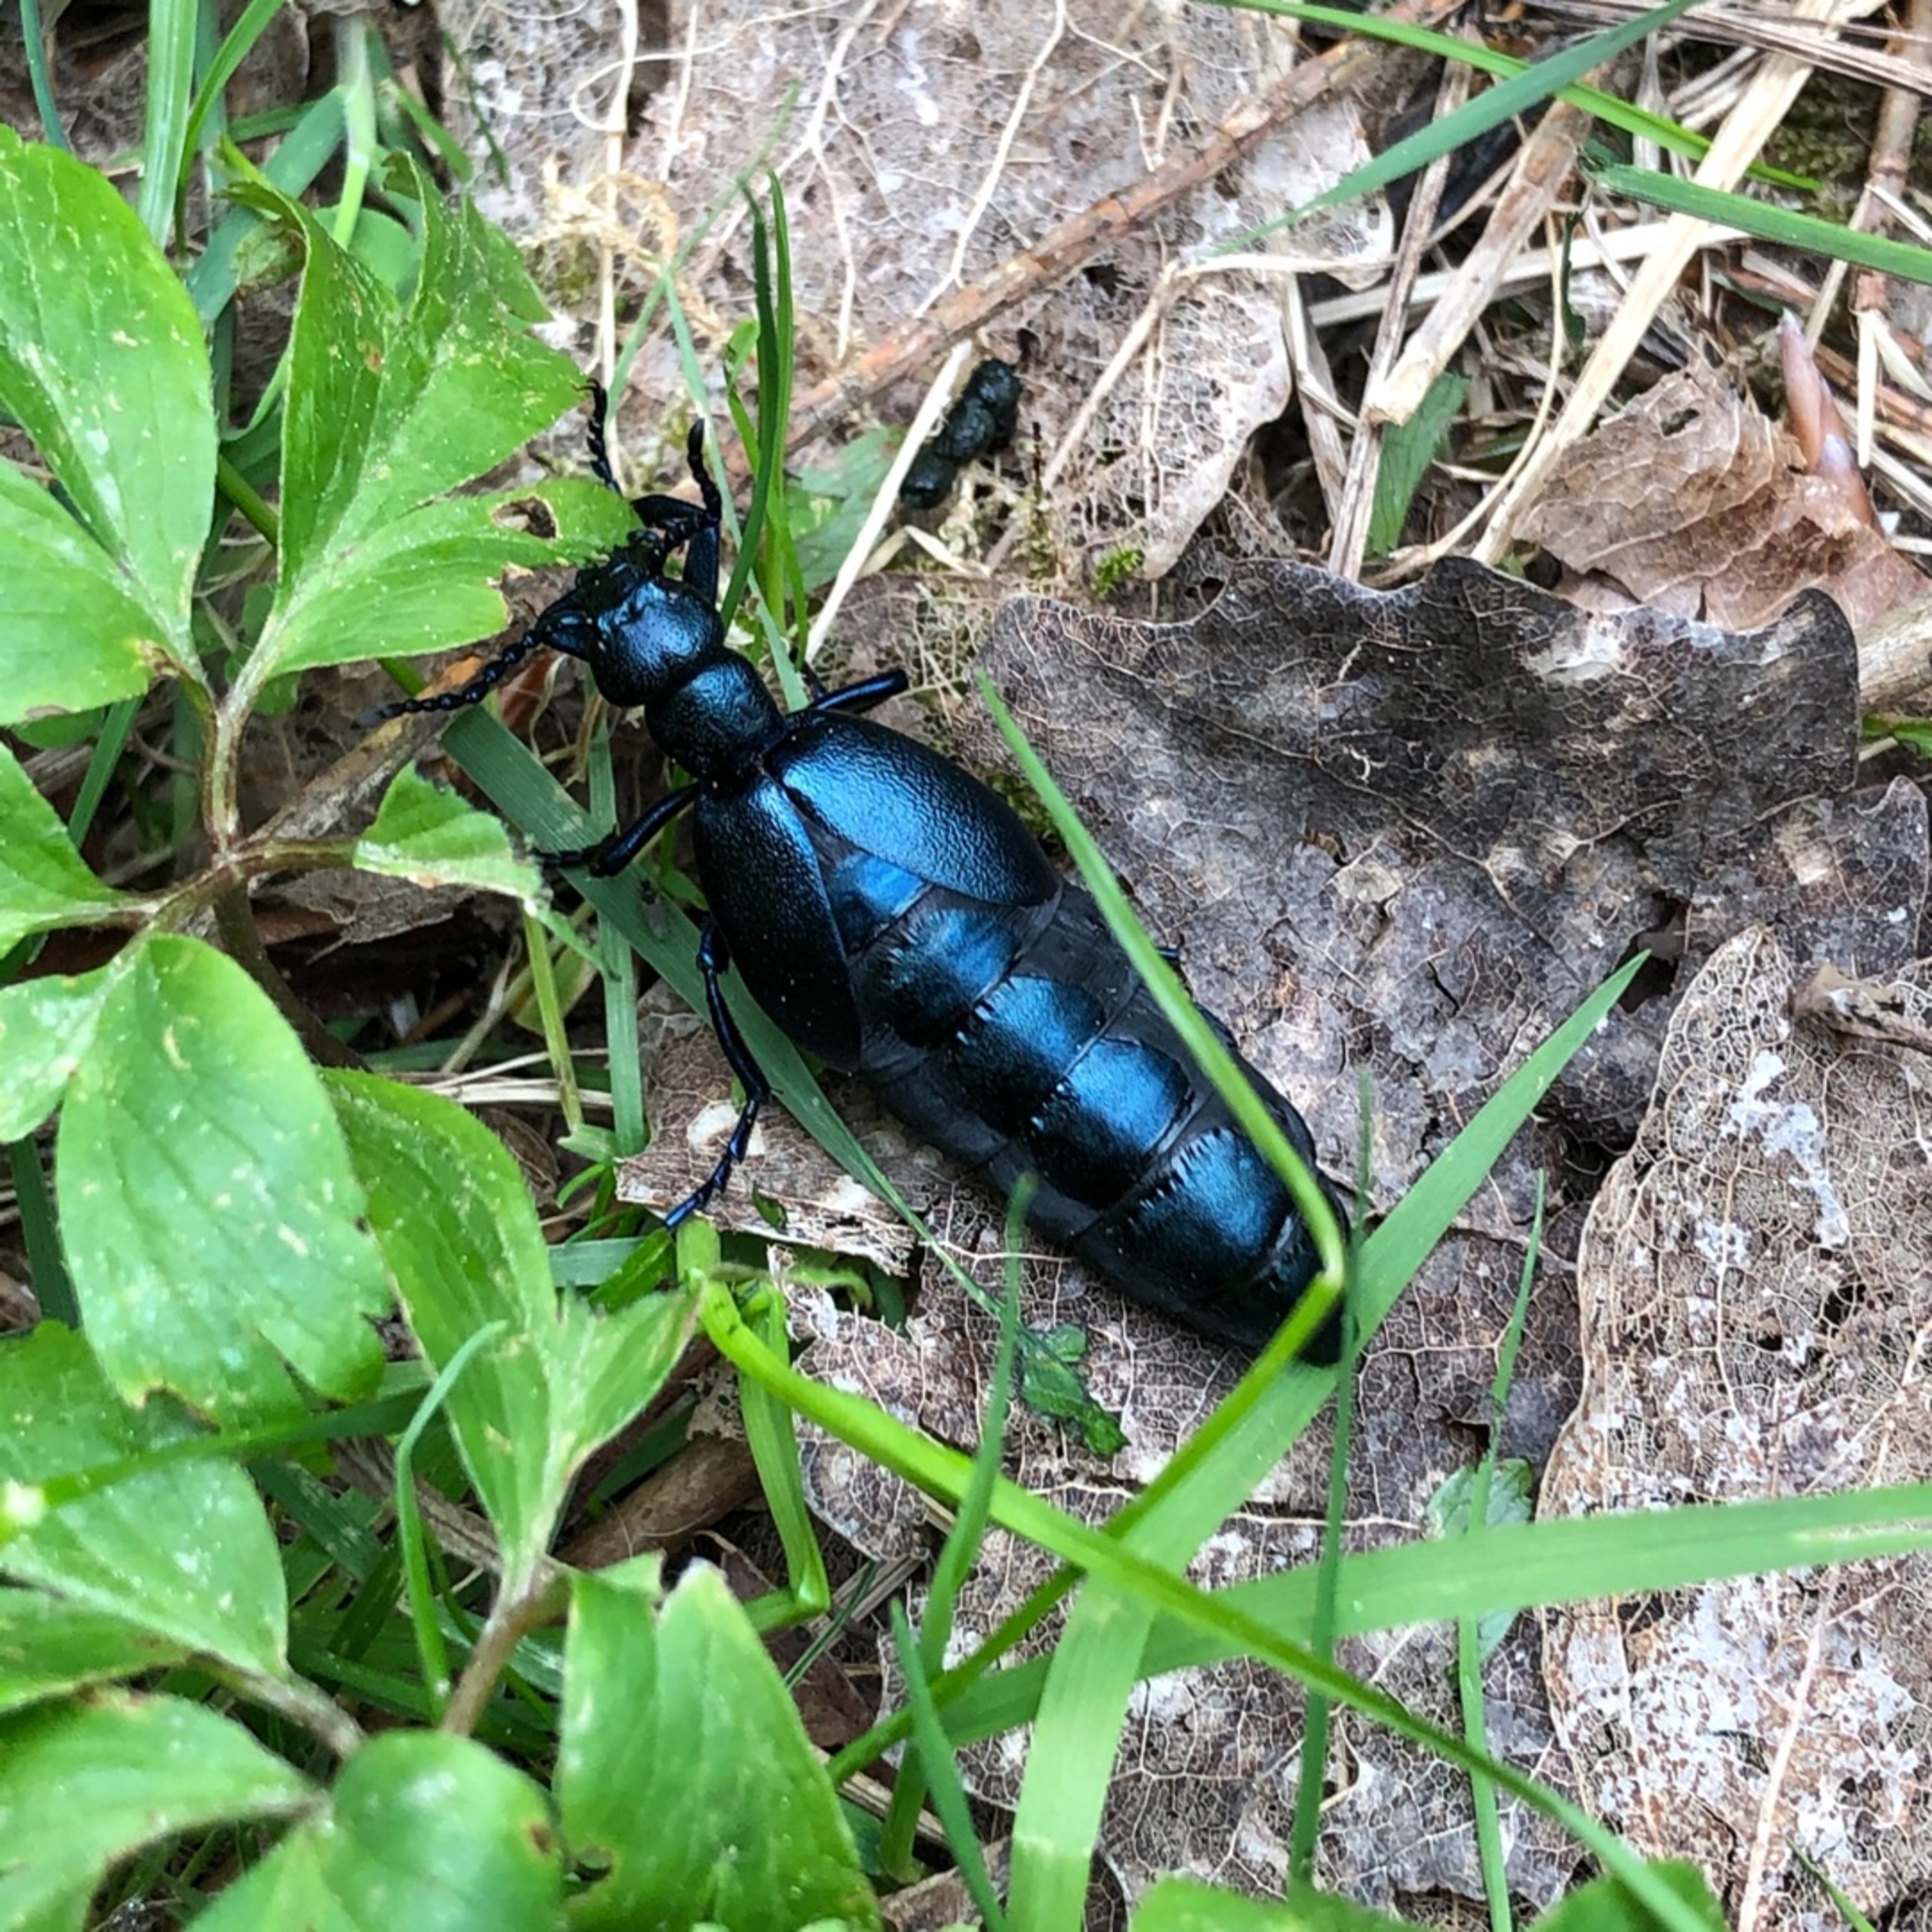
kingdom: Animalia
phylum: Arthropoda
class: Insecta
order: Coleoptera
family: Meloidae
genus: Meloe
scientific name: Meloe violaceus
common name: Blå oliebille
